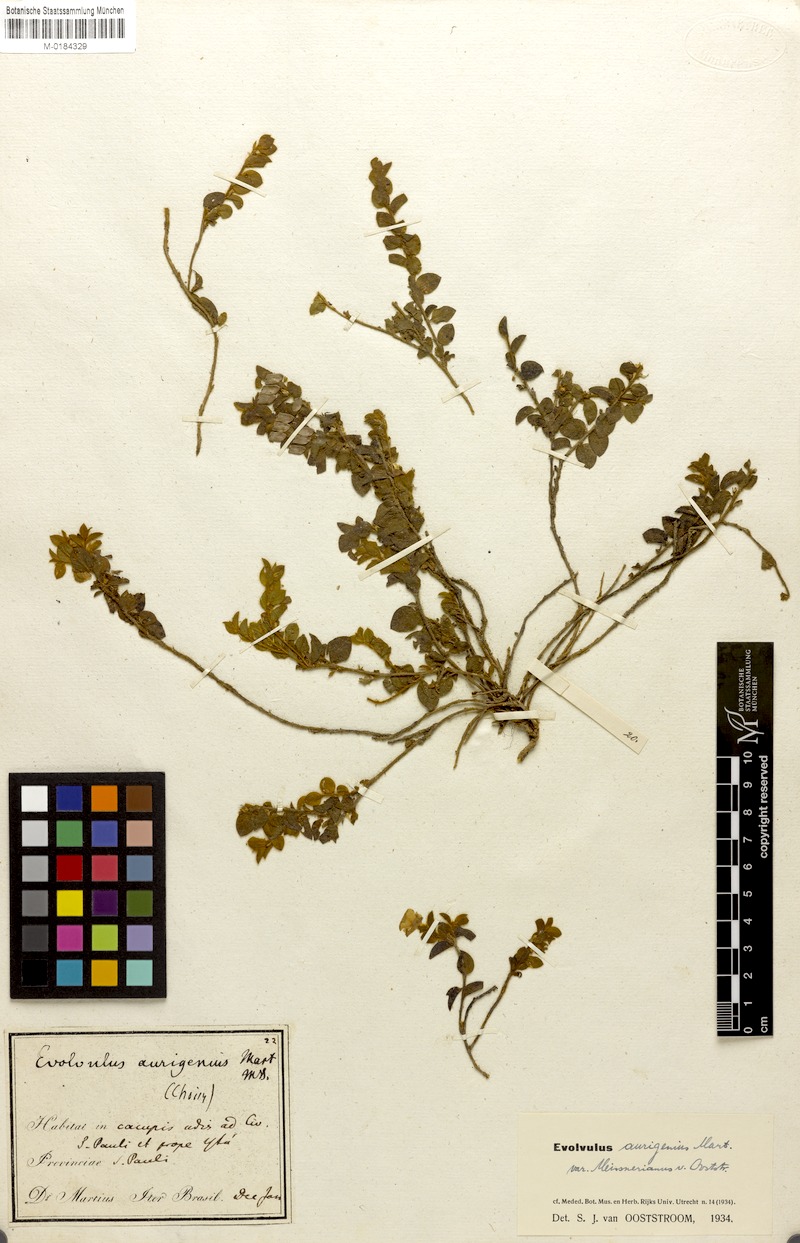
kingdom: Plantae
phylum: Tracheophyta
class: Magnoliopsida
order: Solanales
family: Convolvulaceae
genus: Evolvulus
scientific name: Evolvulus aurigenius
